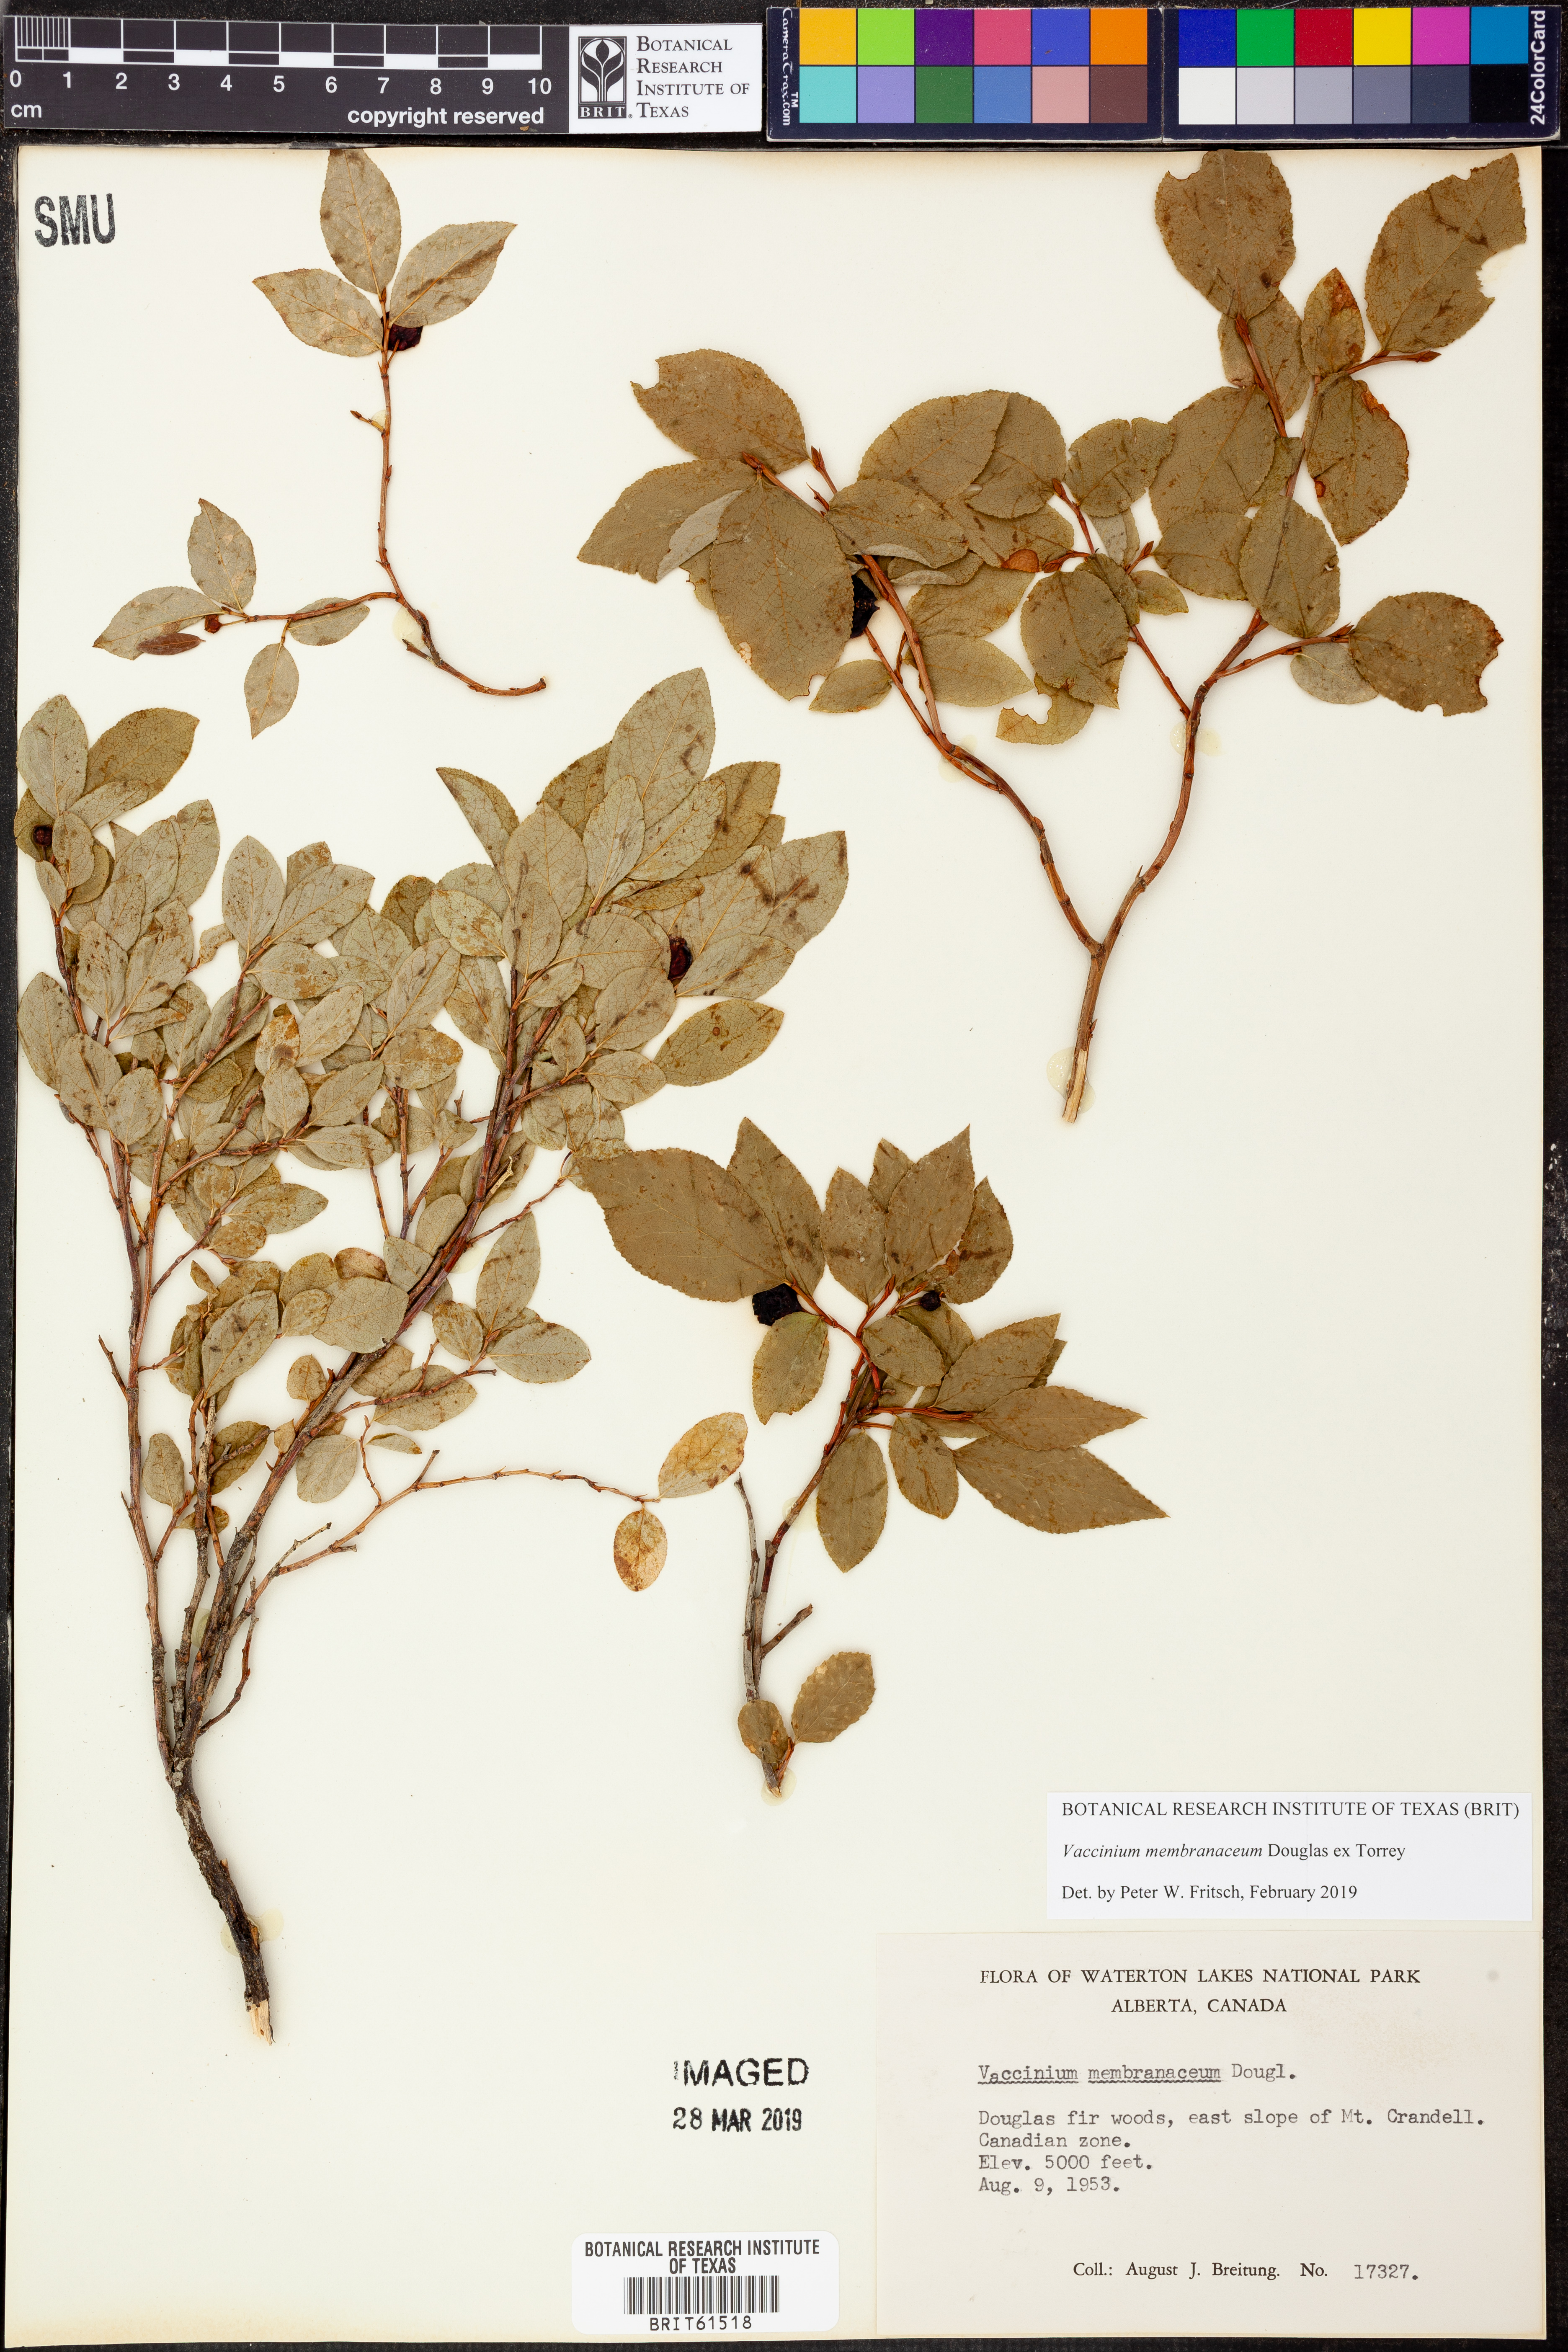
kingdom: Plantae
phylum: Tracheophyta
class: Magnoliopsida
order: Ericales
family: Ericaceae
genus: Vaccinium
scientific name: Vaccinium membranaceum
